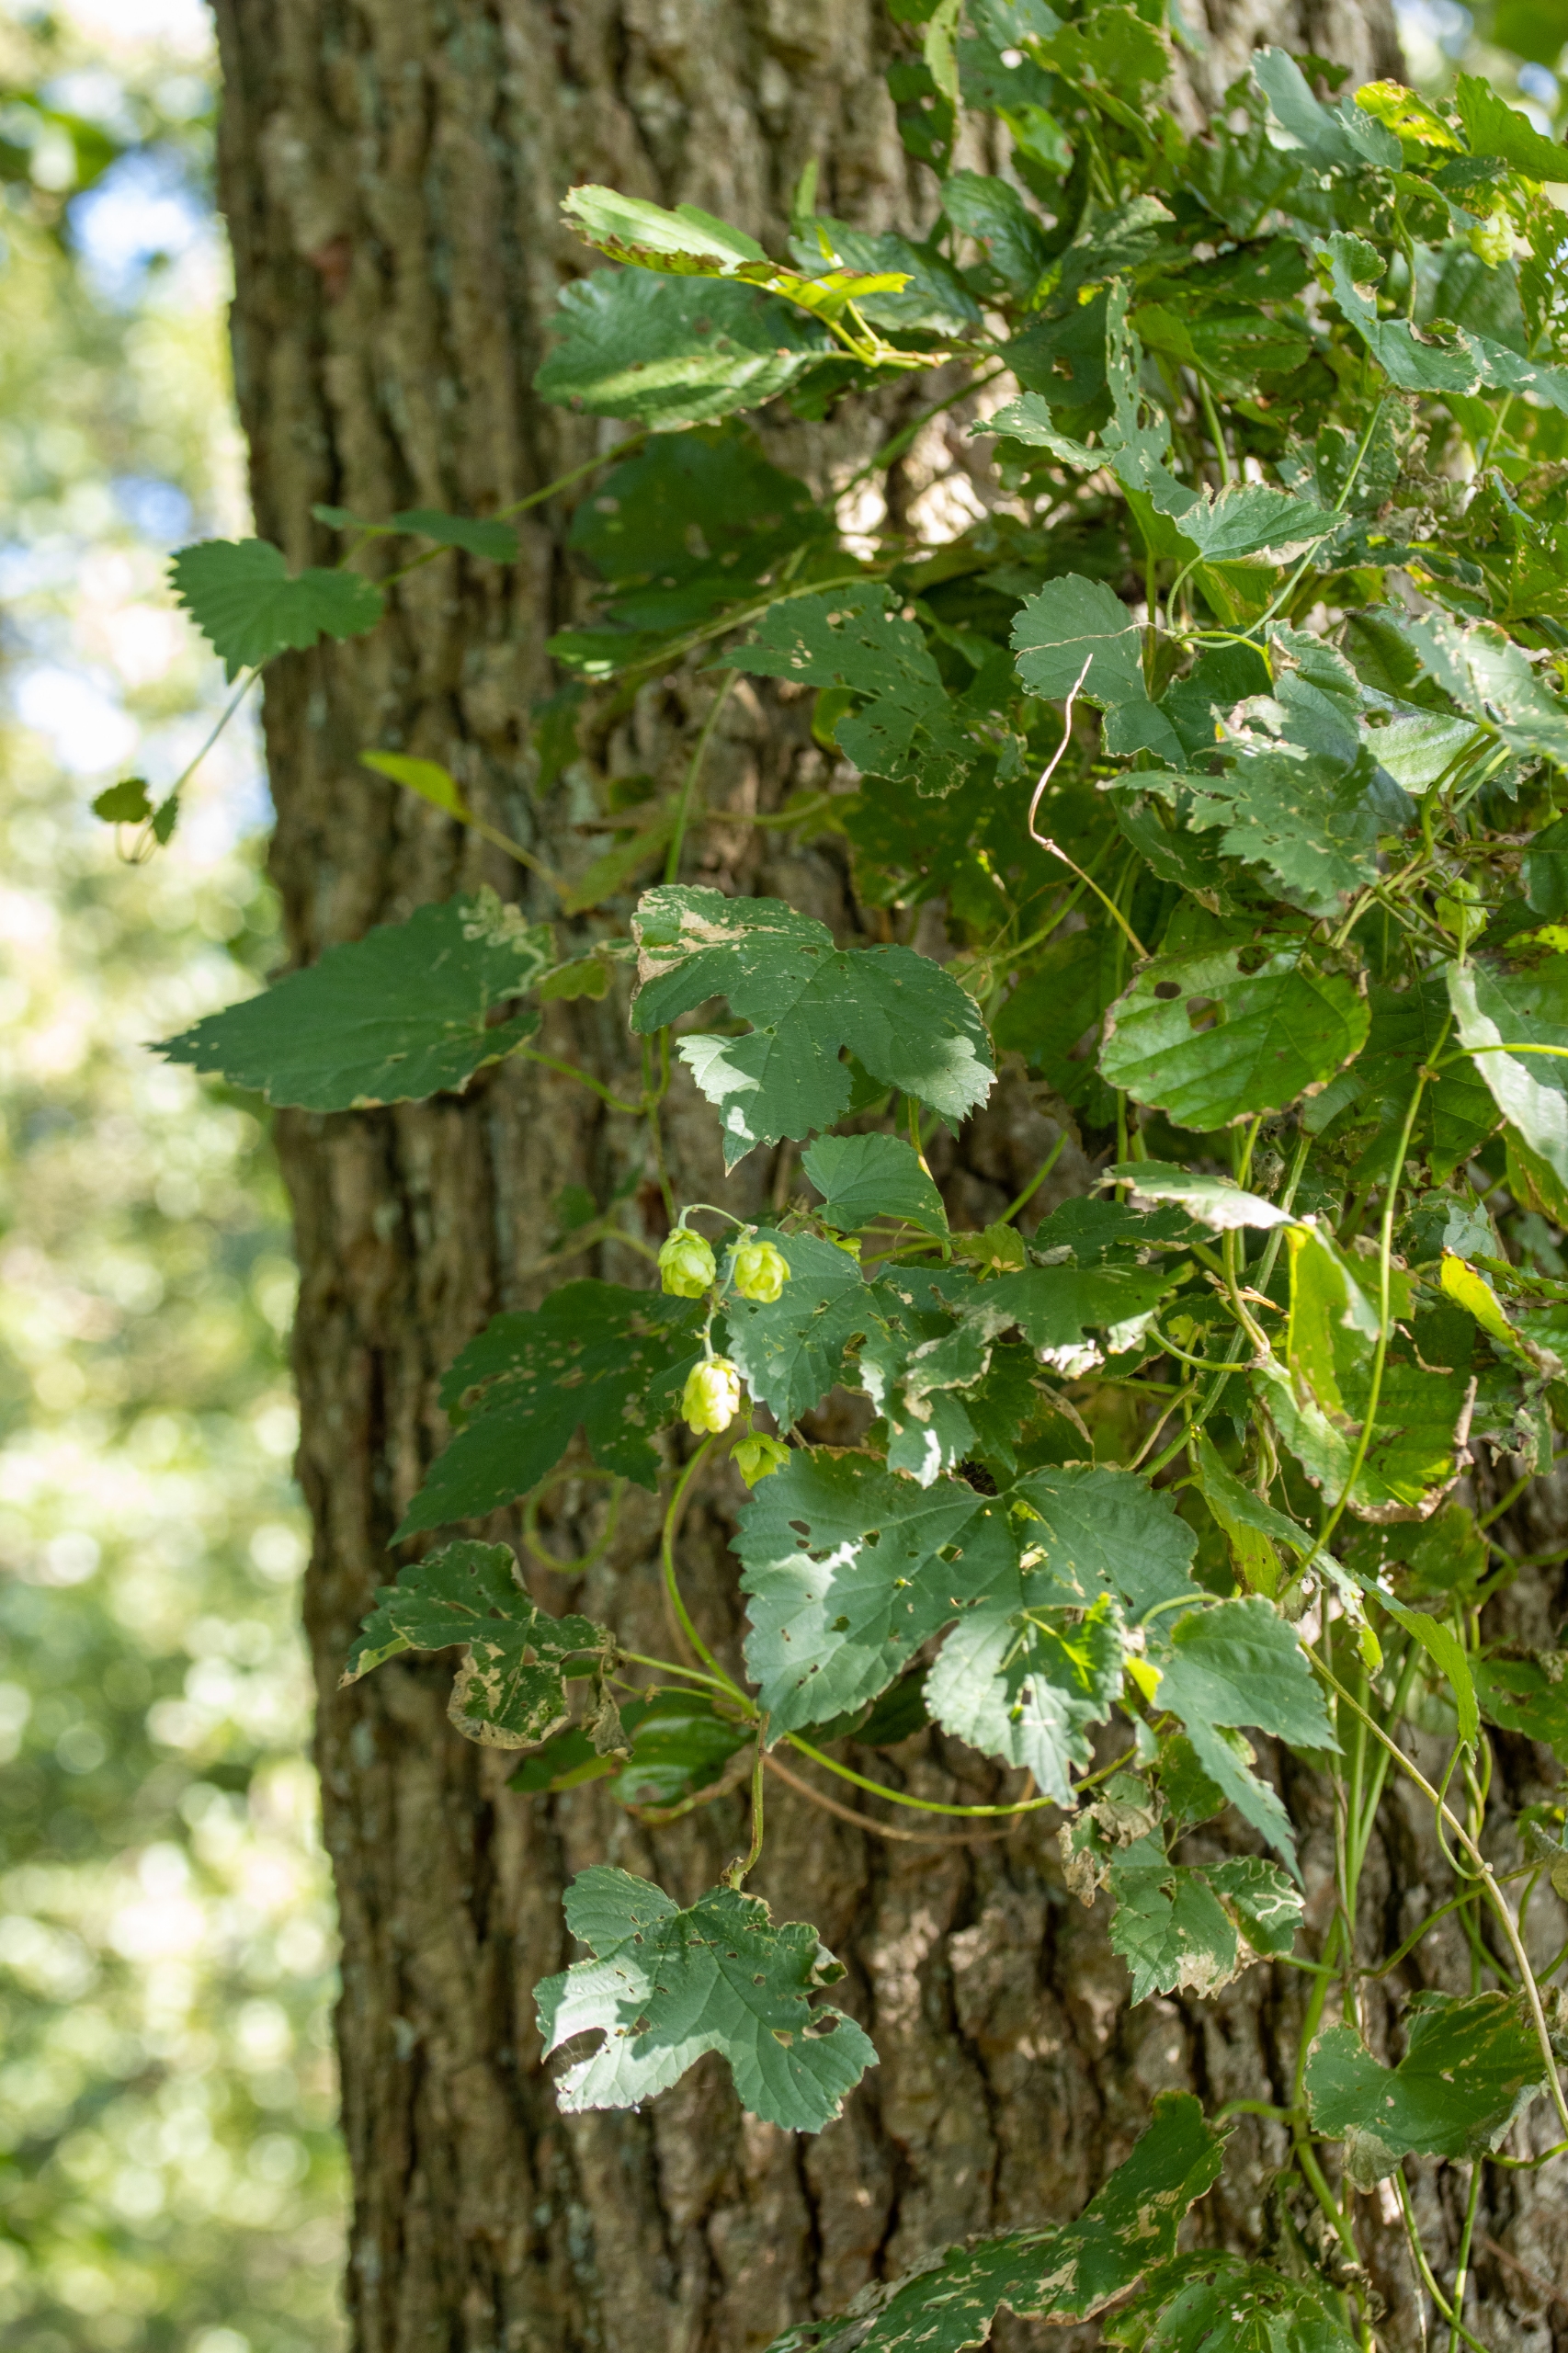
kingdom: Plantae
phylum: Tracheophyta
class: Magnoliopsida
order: Rosales
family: Cannabaceae
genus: Humulus
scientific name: Humulus lupulus
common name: Humle
